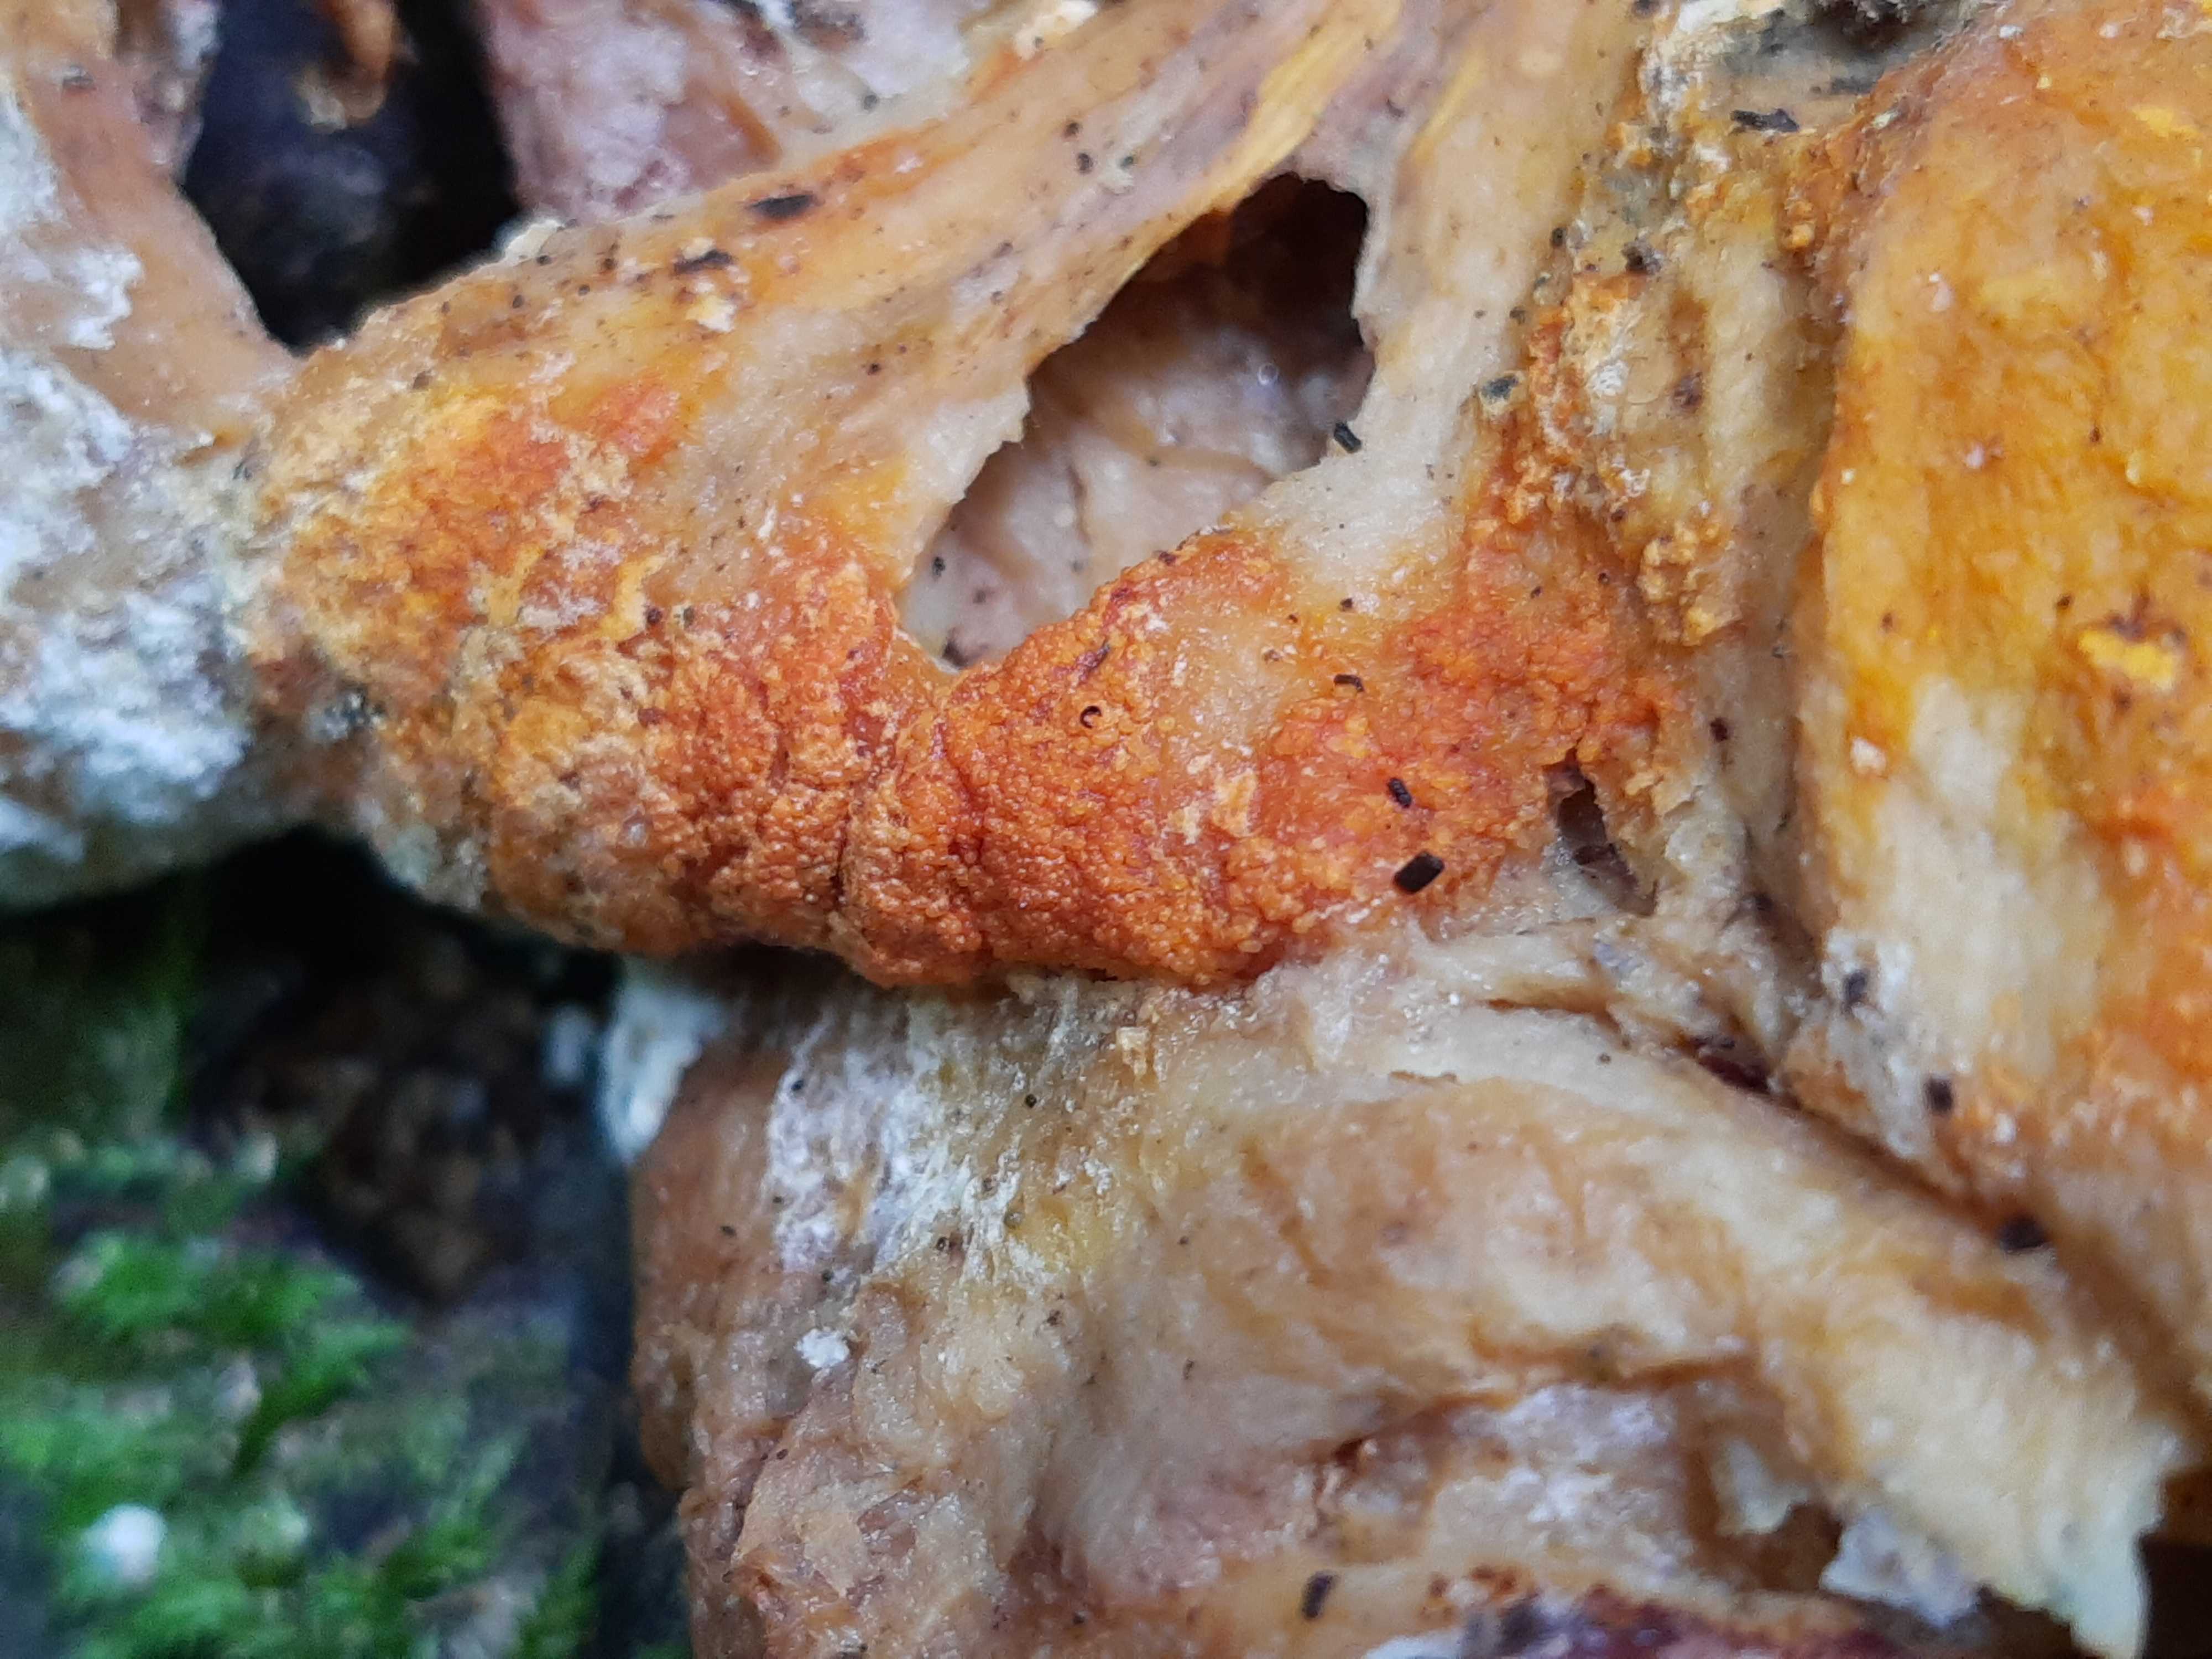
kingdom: Fungi
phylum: Ascomycota
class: Sordariomycetes
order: Hypocreales
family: Hypocreaceae
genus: Hypomyces
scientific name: Hypomyces aurantius
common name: almindelig snylteskorpe
